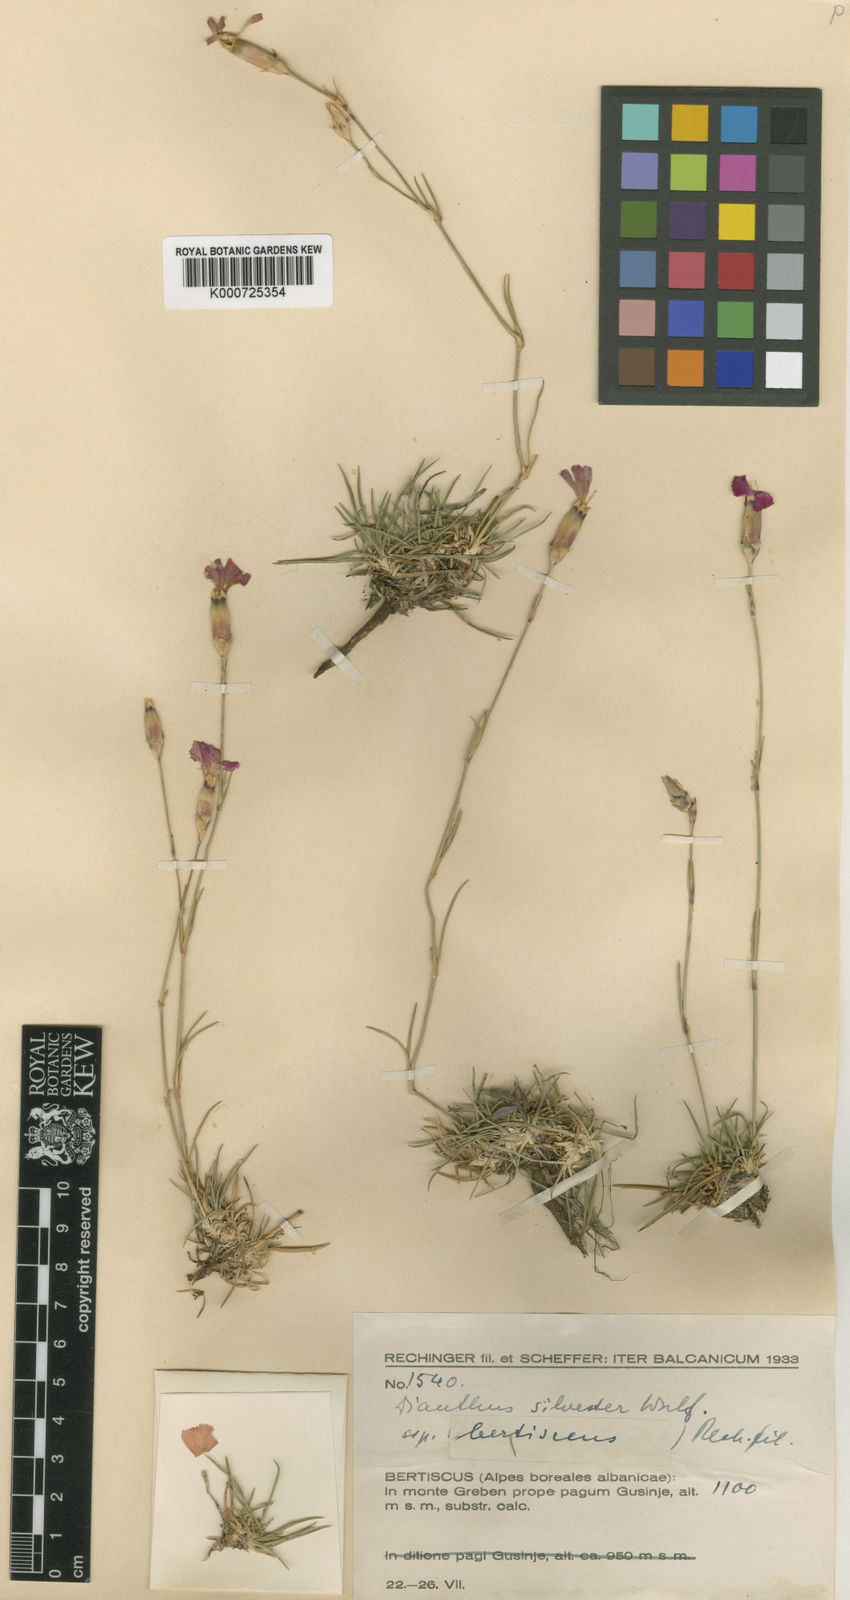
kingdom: Plantae
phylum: Tracheophyta
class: Magnoliopsida
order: Caryophyllales
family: Caryophyllaceae
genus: Dianthus
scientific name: Dianthus sylvestris
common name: Wood pink
